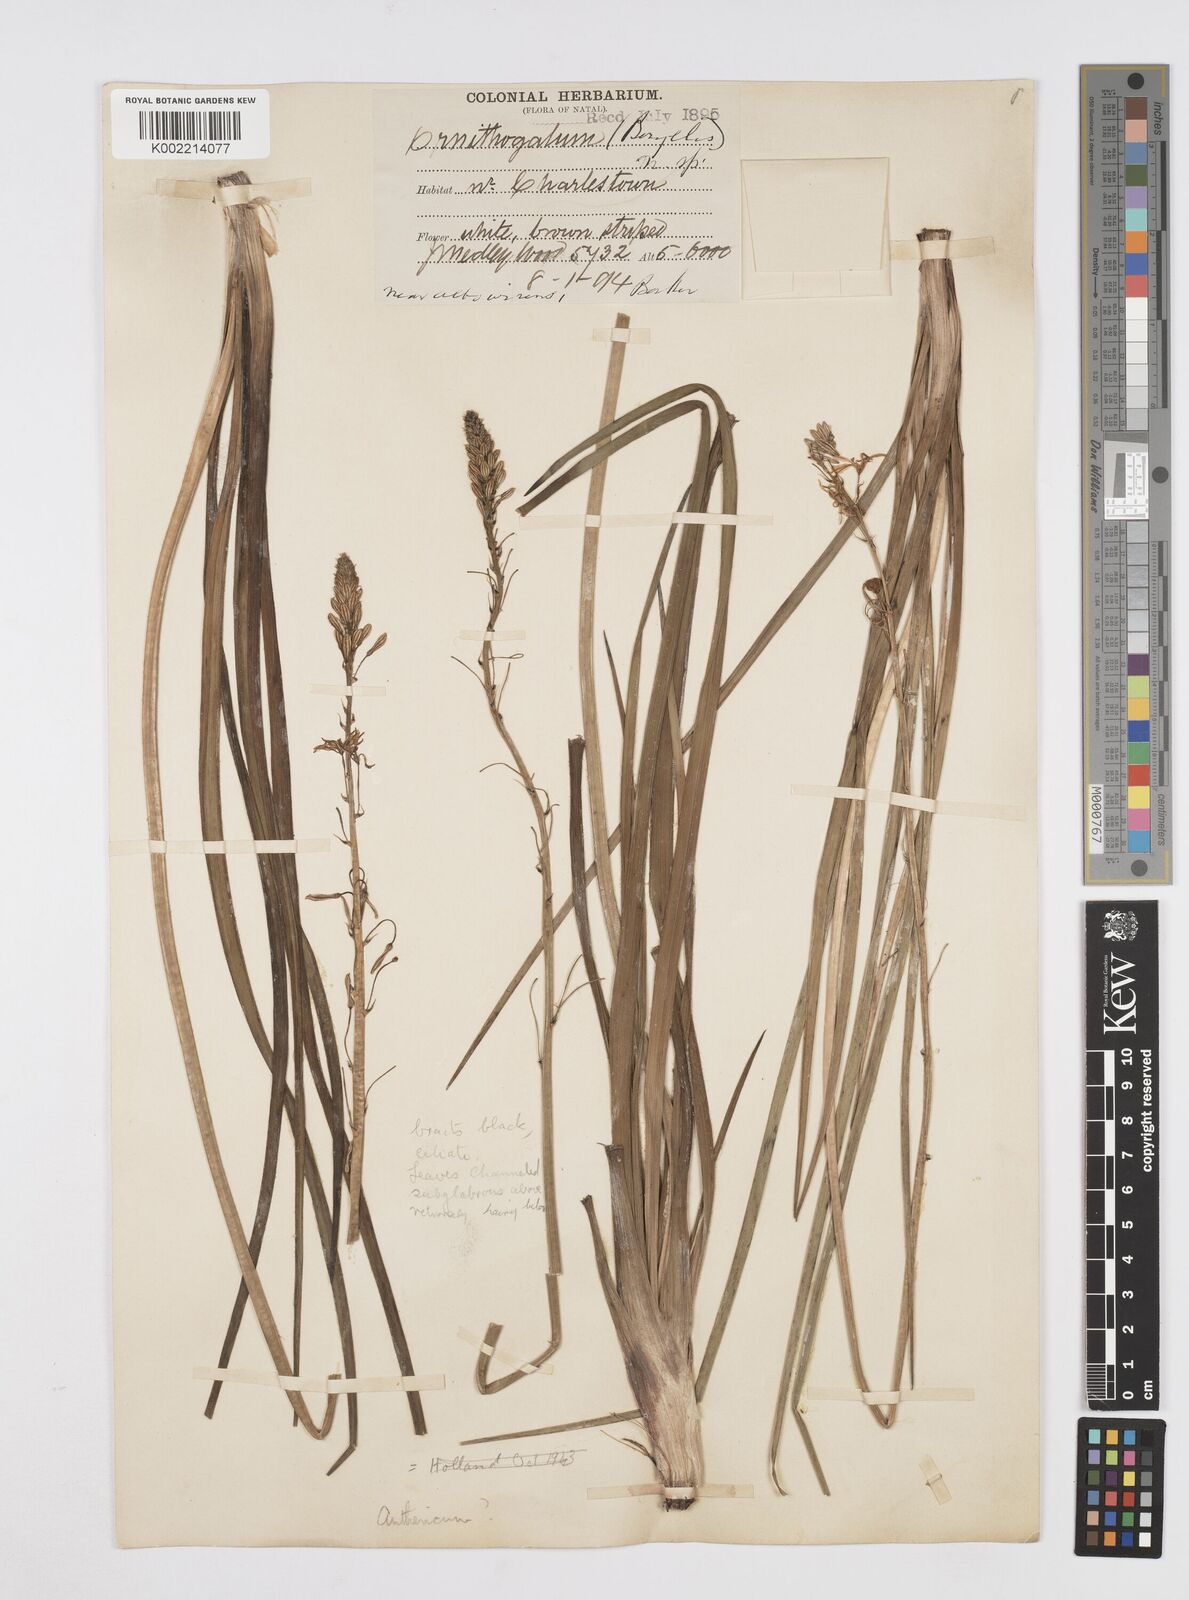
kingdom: Plantae
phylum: Tracheophyta
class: Liliopsida
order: Asparagales
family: Asphodelaceae
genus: Trachyandra
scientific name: Trachyandra
